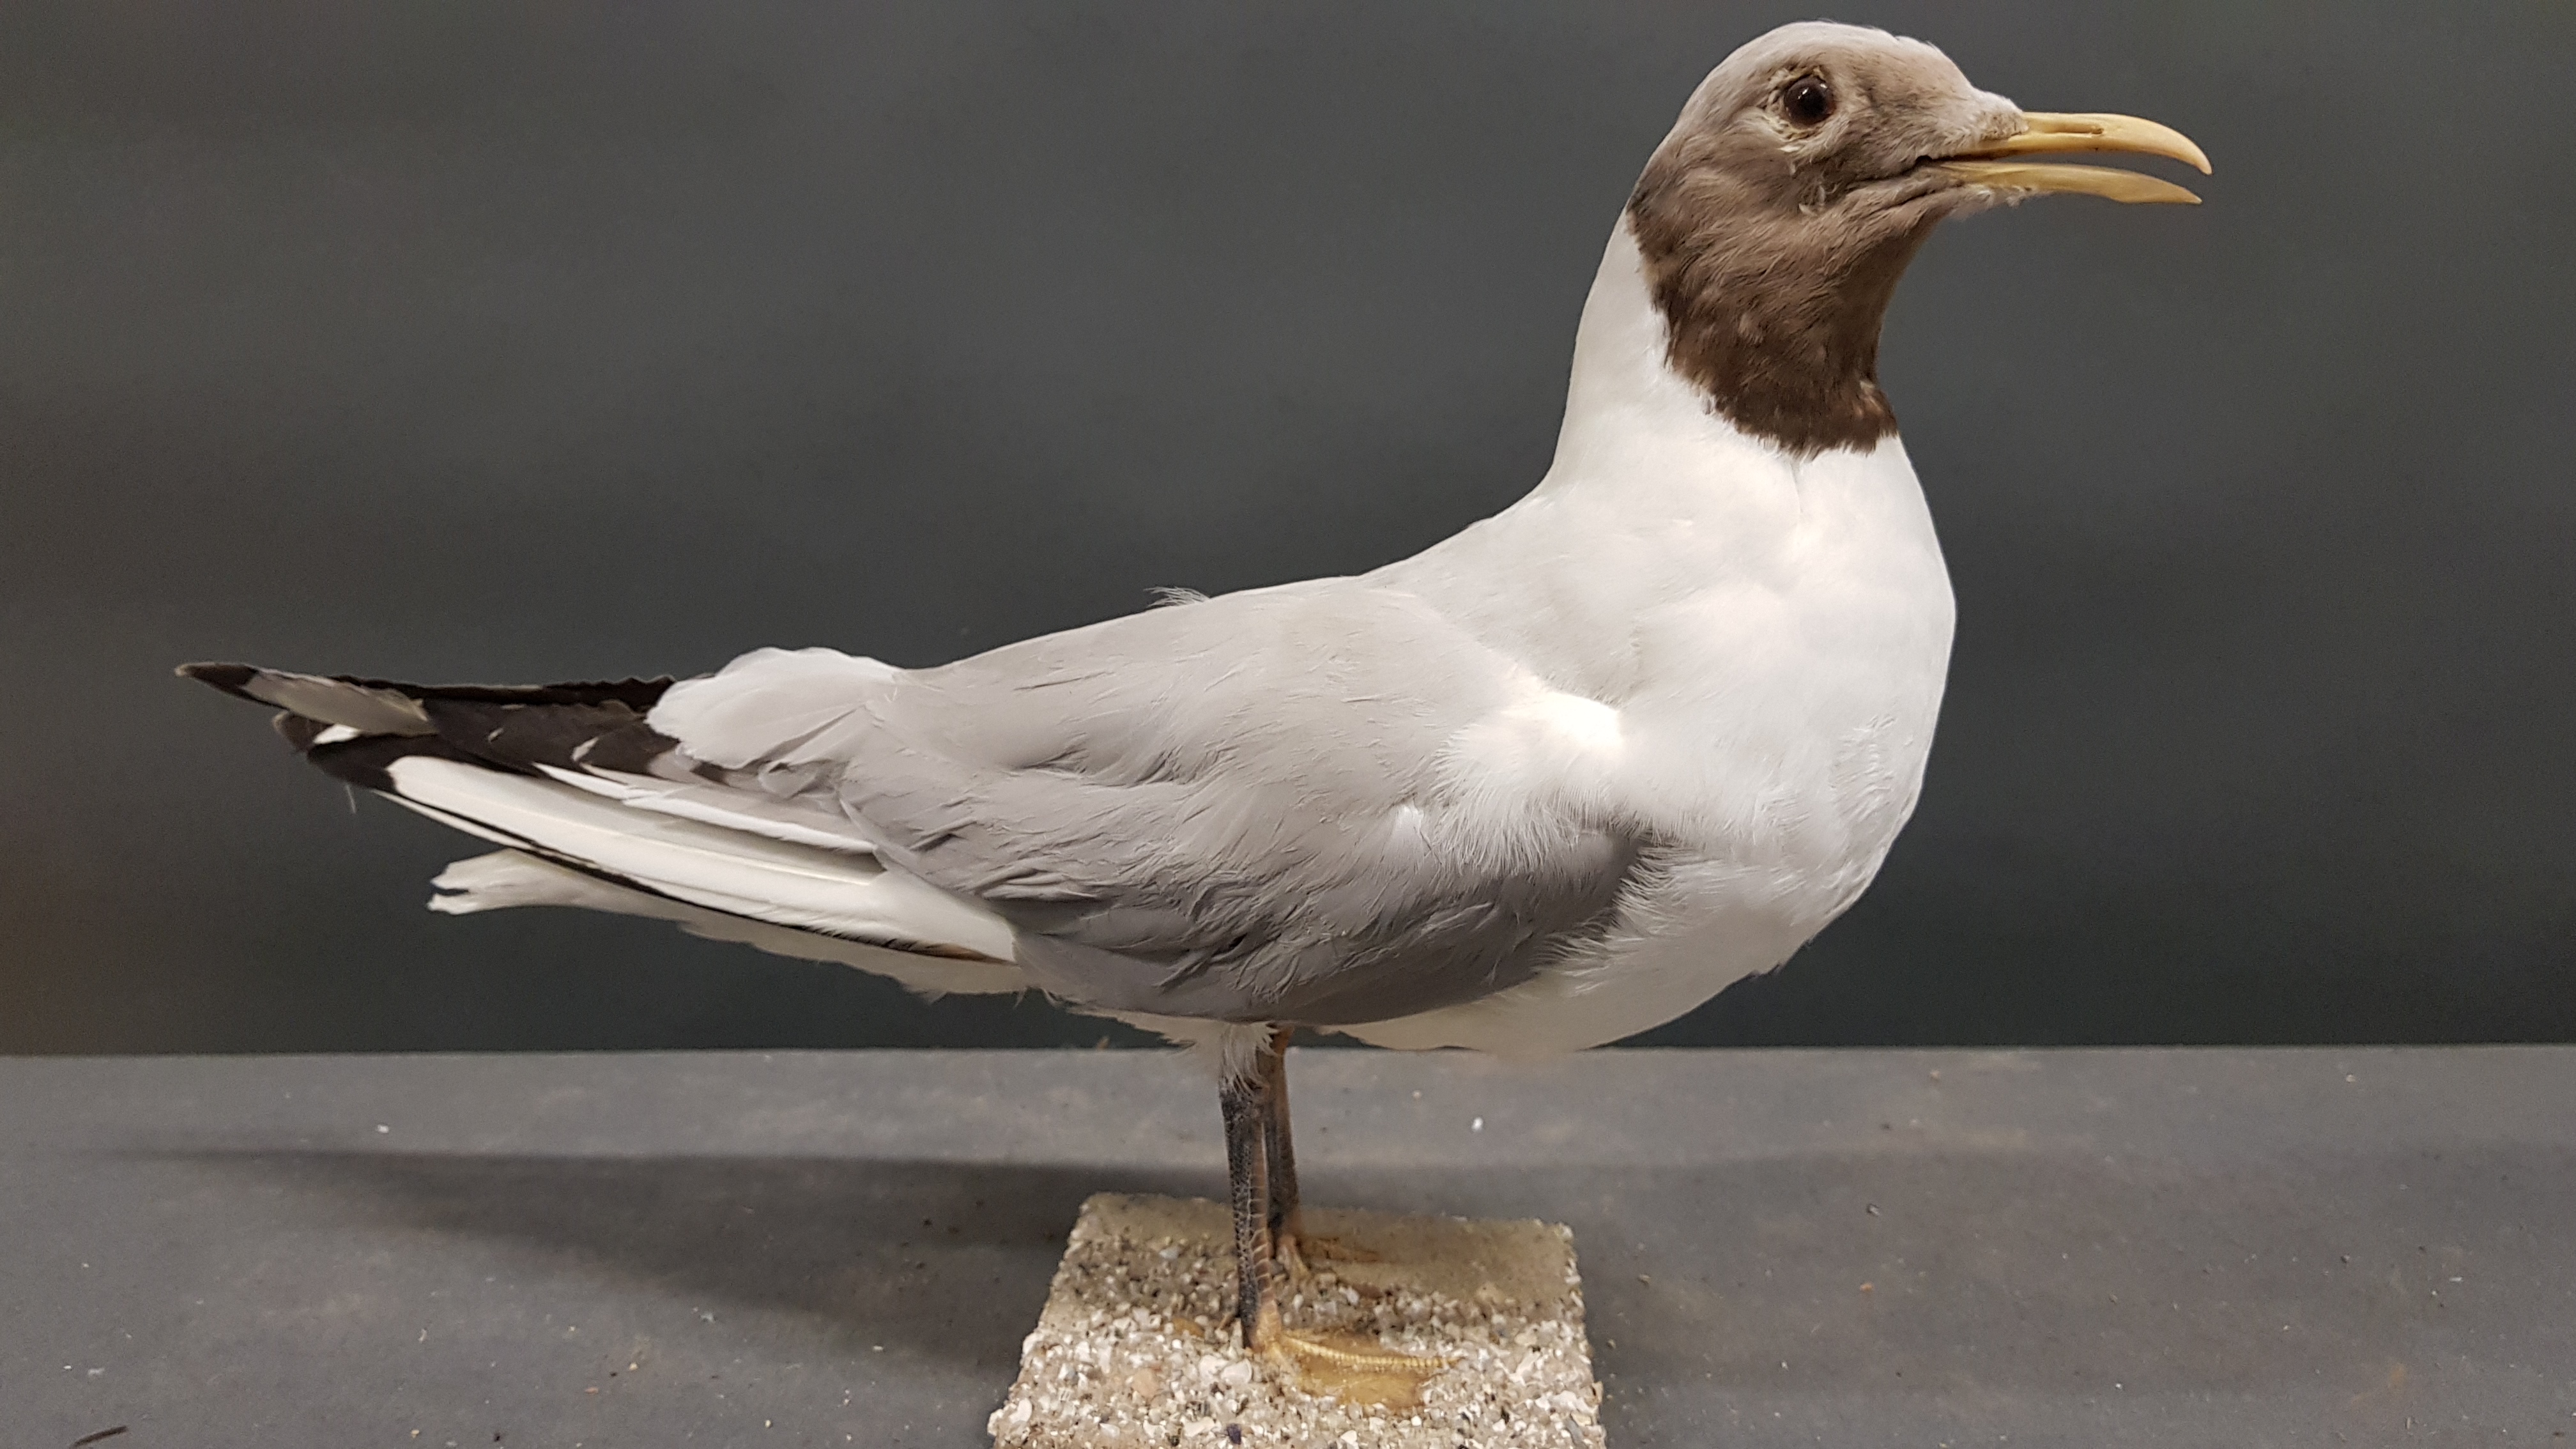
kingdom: Animalia
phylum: Chordata
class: Aves
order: Charadriiformes
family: Laridae
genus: Chroicocephalus
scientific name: Chroicocephalus ridibundus
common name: Black-headed gull
